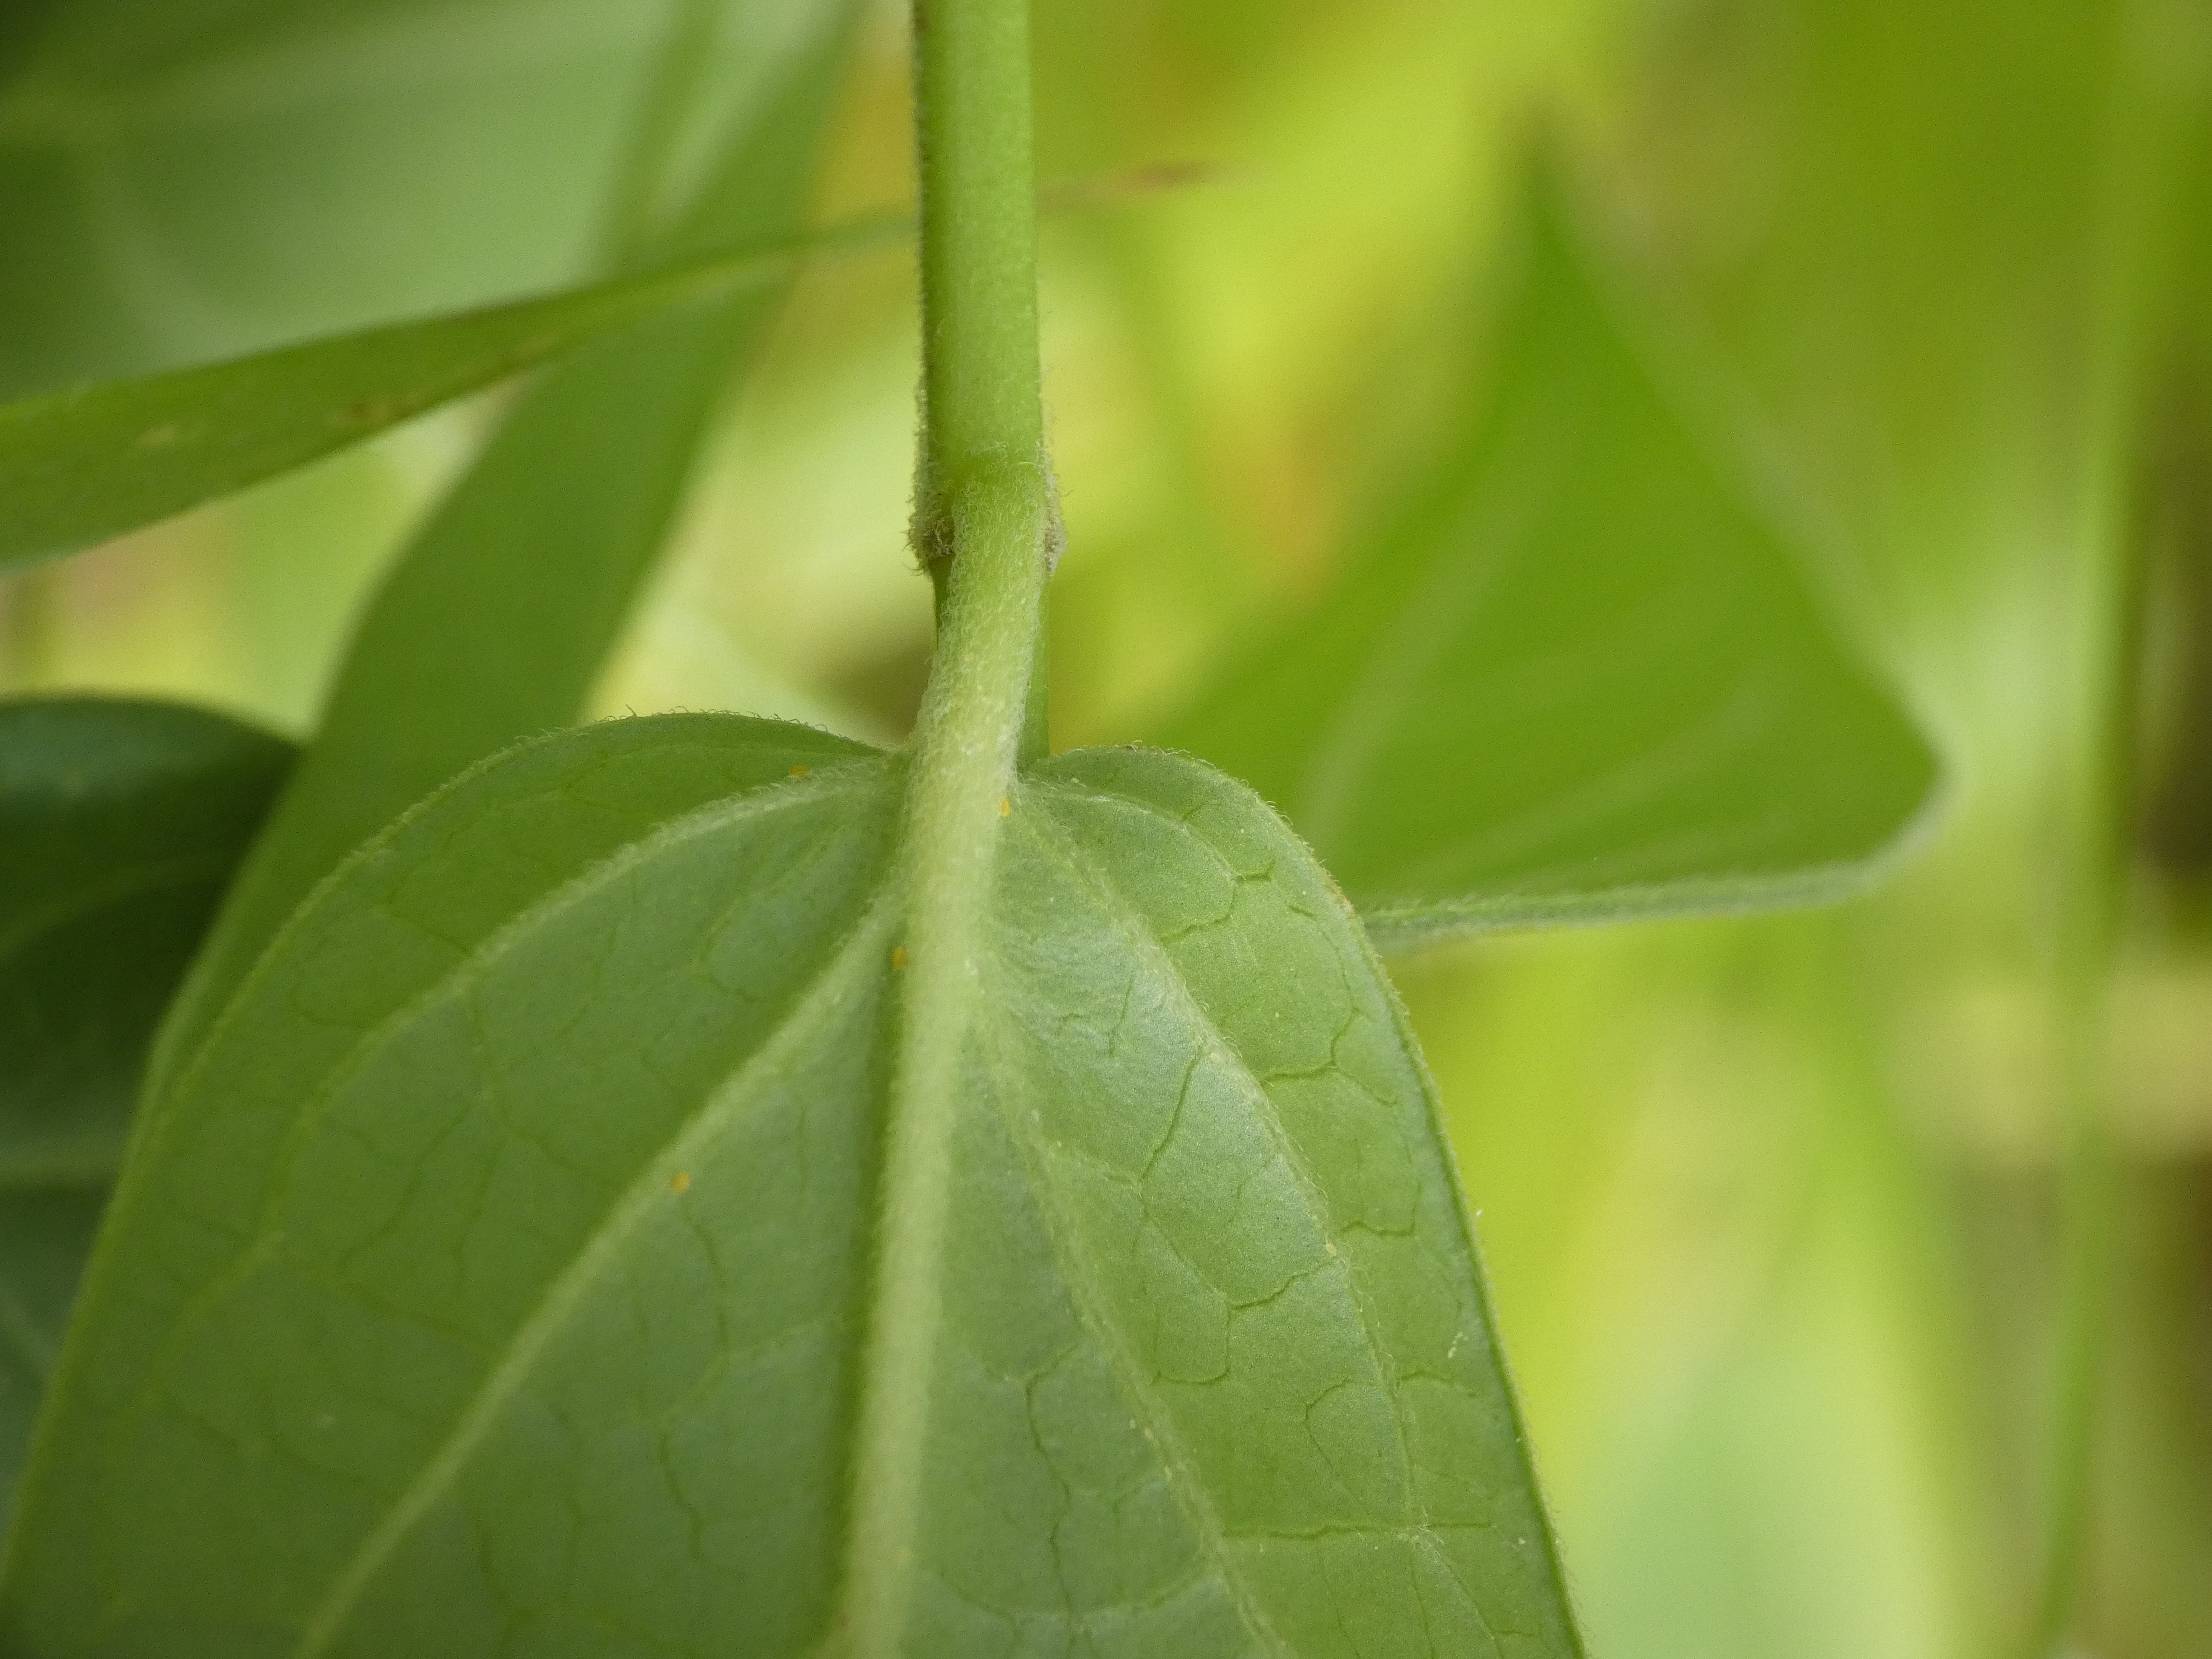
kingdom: Plantae
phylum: Tracheophyta
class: Magnoliopsida
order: Gentianales
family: Apocynaceae
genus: Vincetoxicum
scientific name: Vincetoxicum hirundinaria
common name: Svalerod
